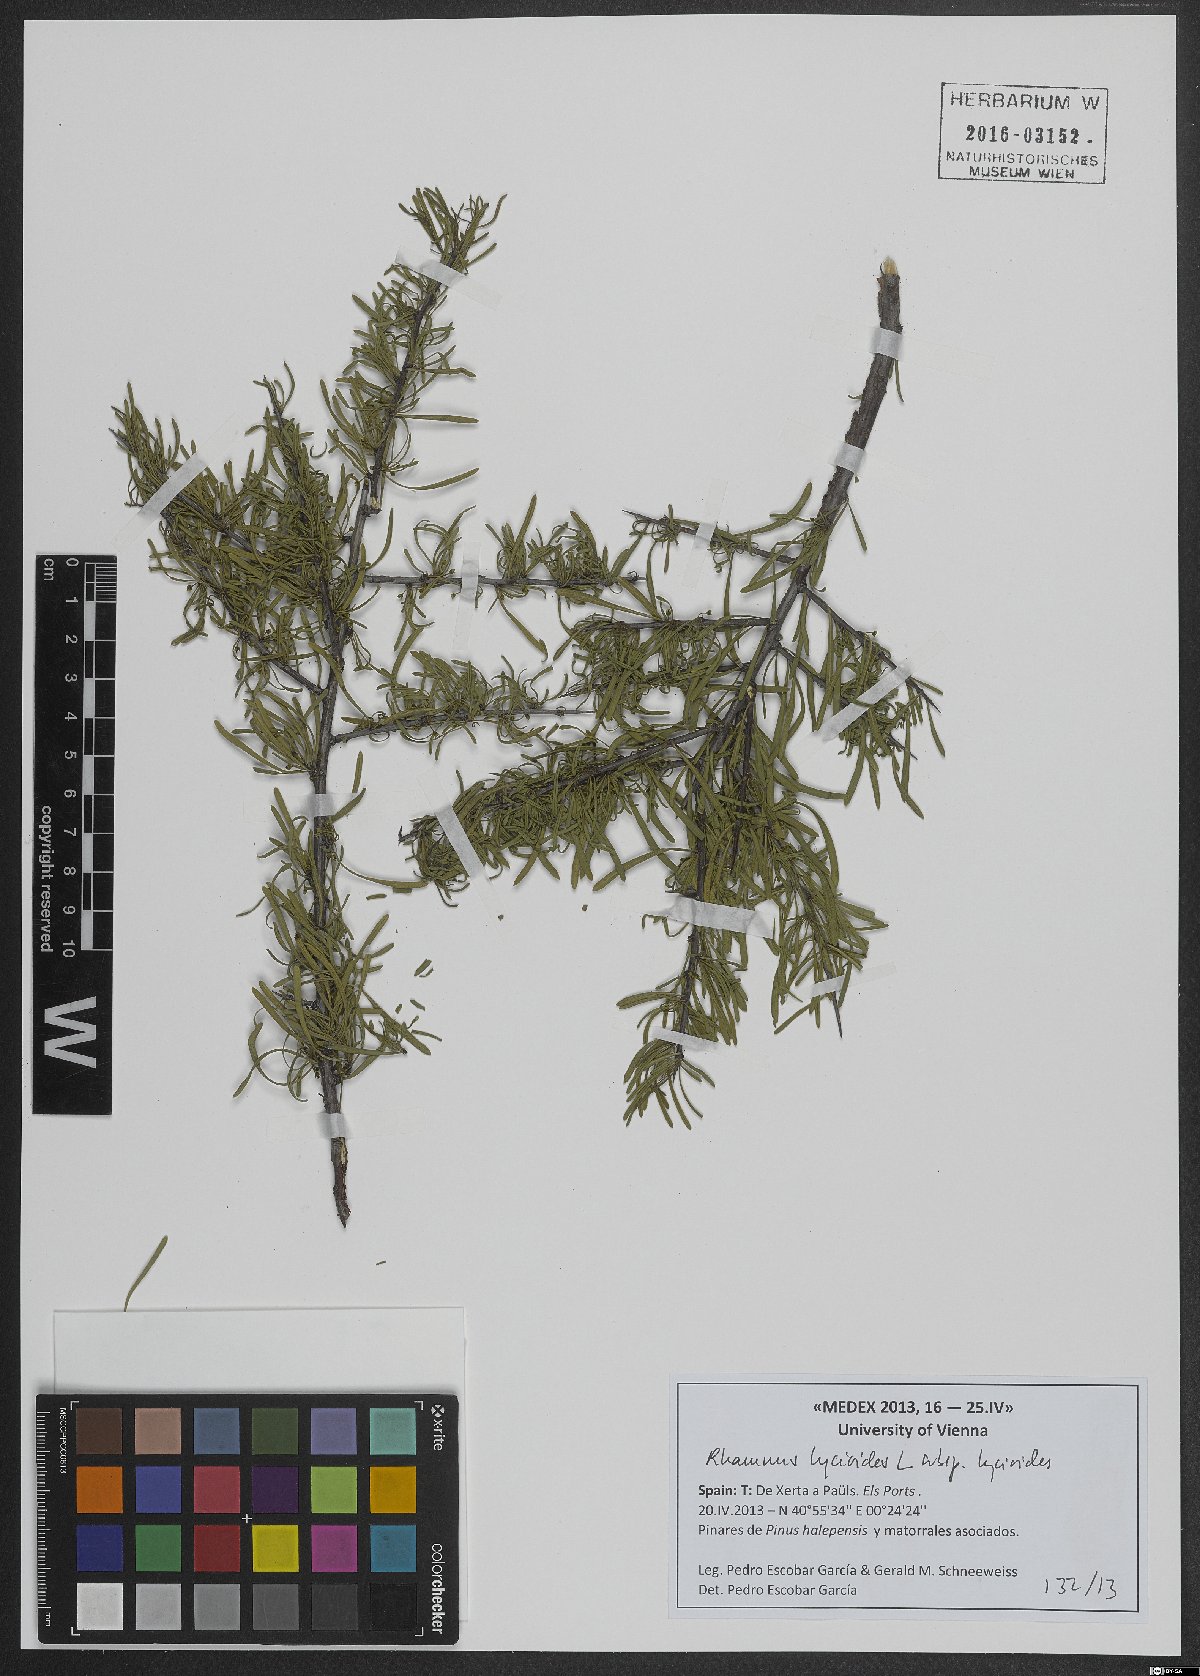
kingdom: Plantae
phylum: Tracheophyta
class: Magnoliopsida
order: Rosales
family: Rhamnaceae
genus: Rhamnus
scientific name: Rhamnus oleoides
